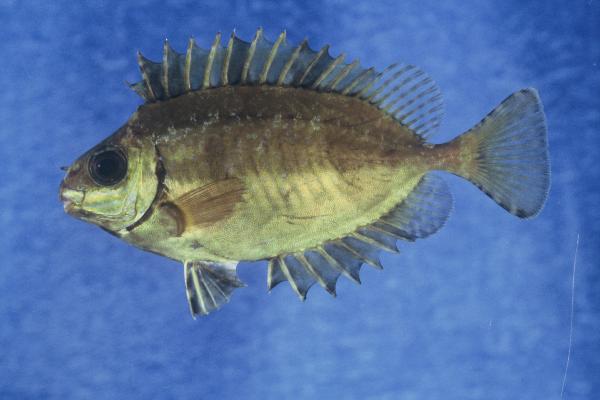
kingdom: Animalia
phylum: Chordata
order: Perciformes
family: Siganidae
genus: Siganus
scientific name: Siganus luridus
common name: Dusky spinefoot
